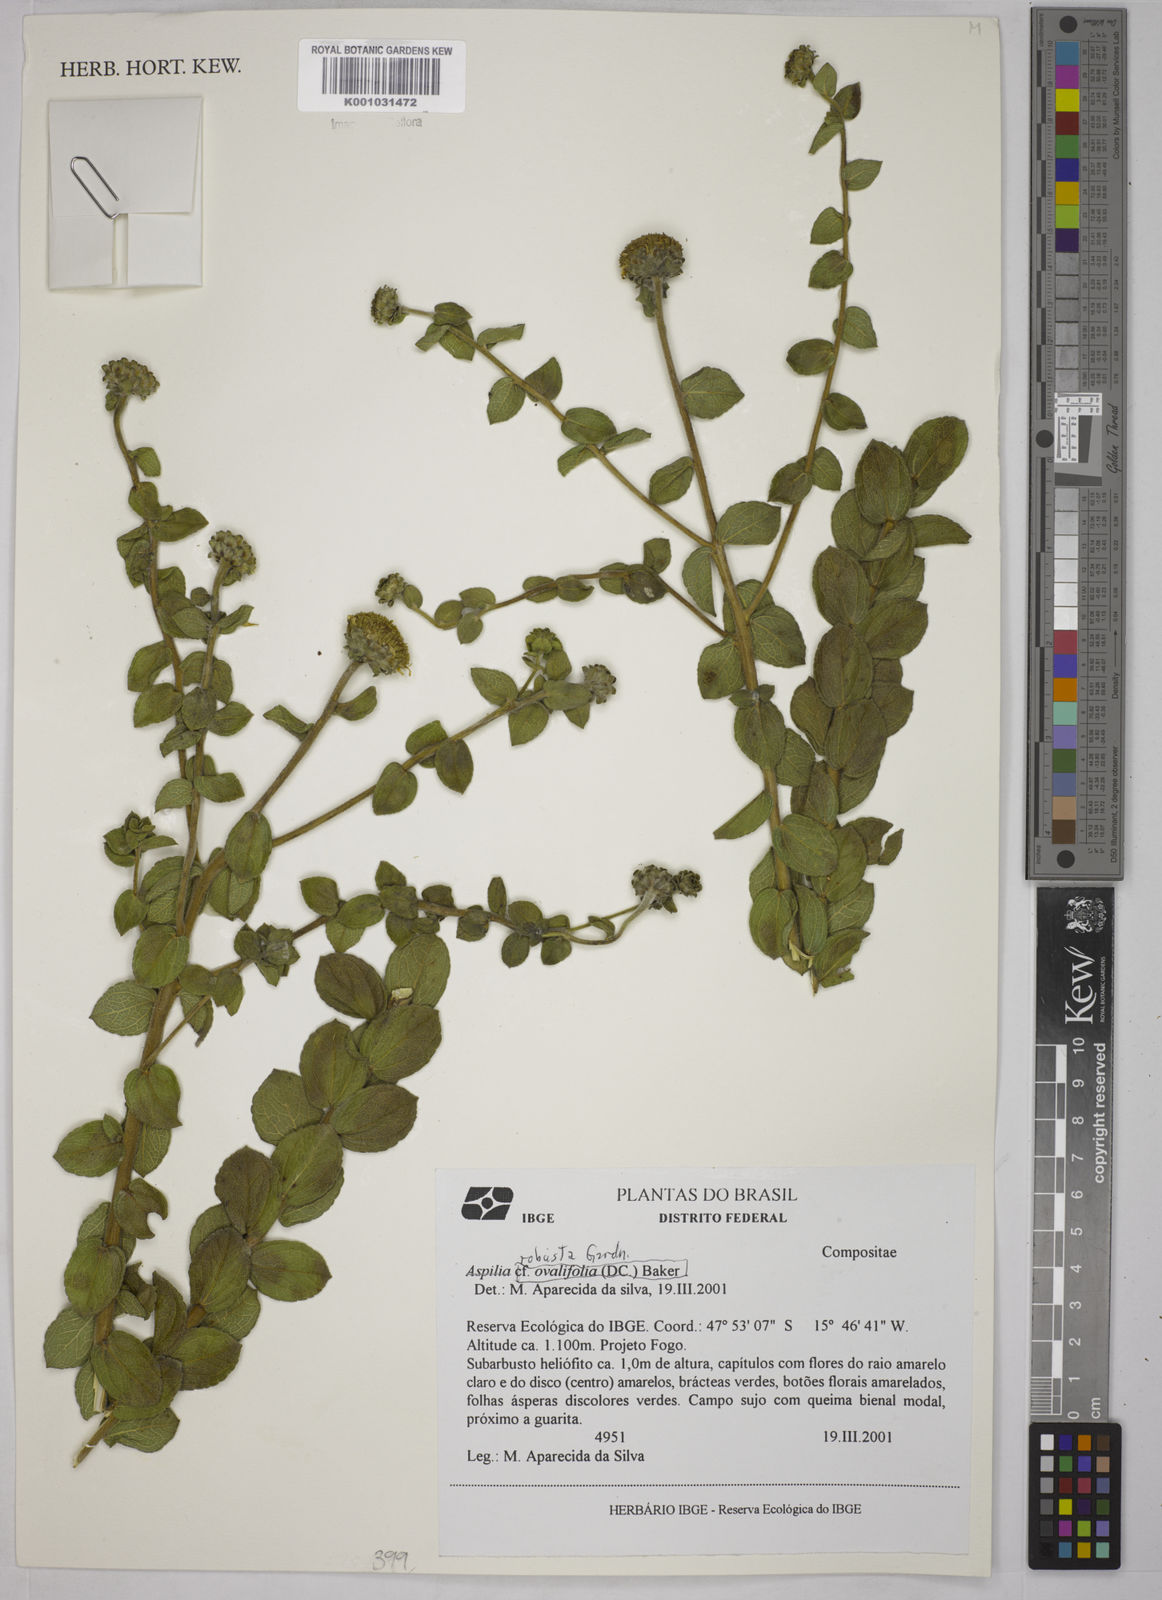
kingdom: Plantae
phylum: Tracheophyta
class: Magnoliopsida
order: Asterales
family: Asteraceae
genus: Aldama
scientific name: Aldama robusta
